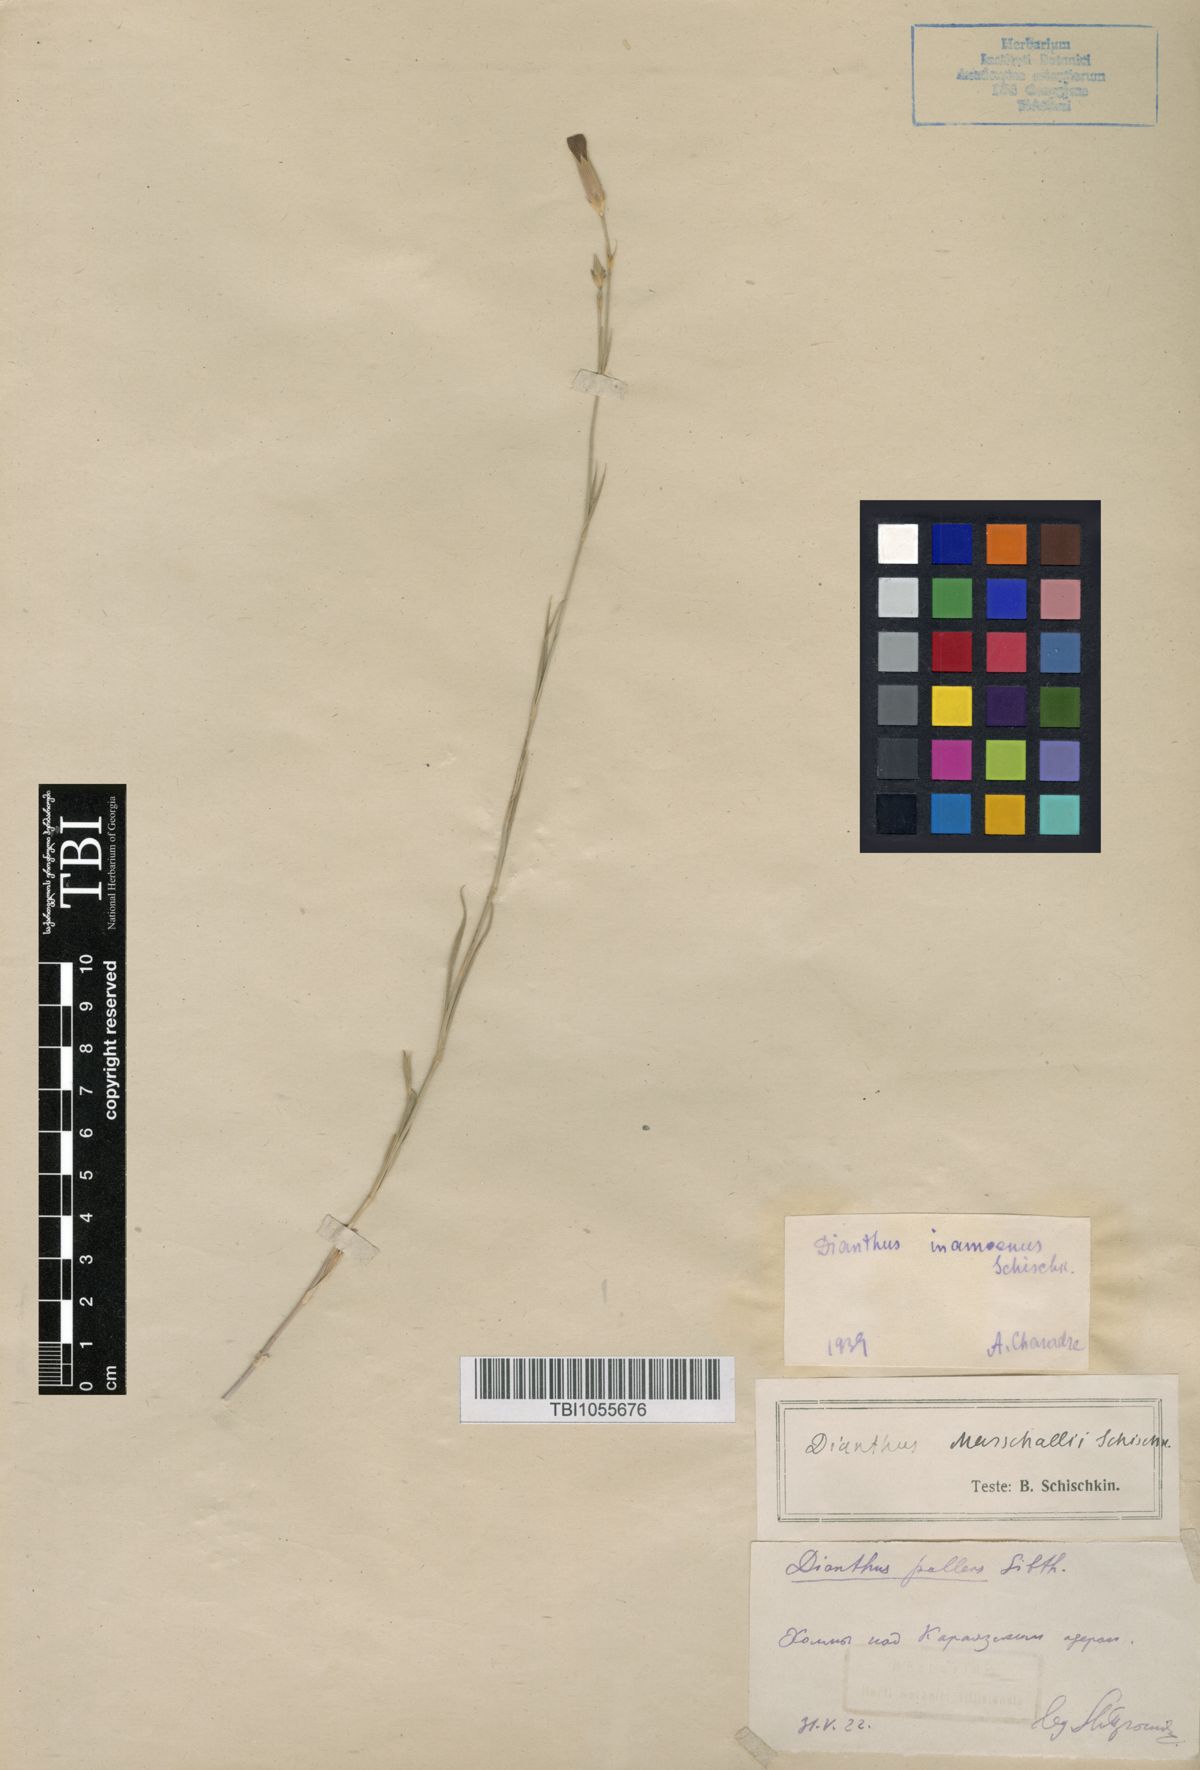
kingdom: Plantae
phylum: Tracheophyta
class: Magnoliopsida
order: Caryophyllales
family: Caryophyllaceae
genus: Dianthus
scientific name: Dianthus inamoenus
